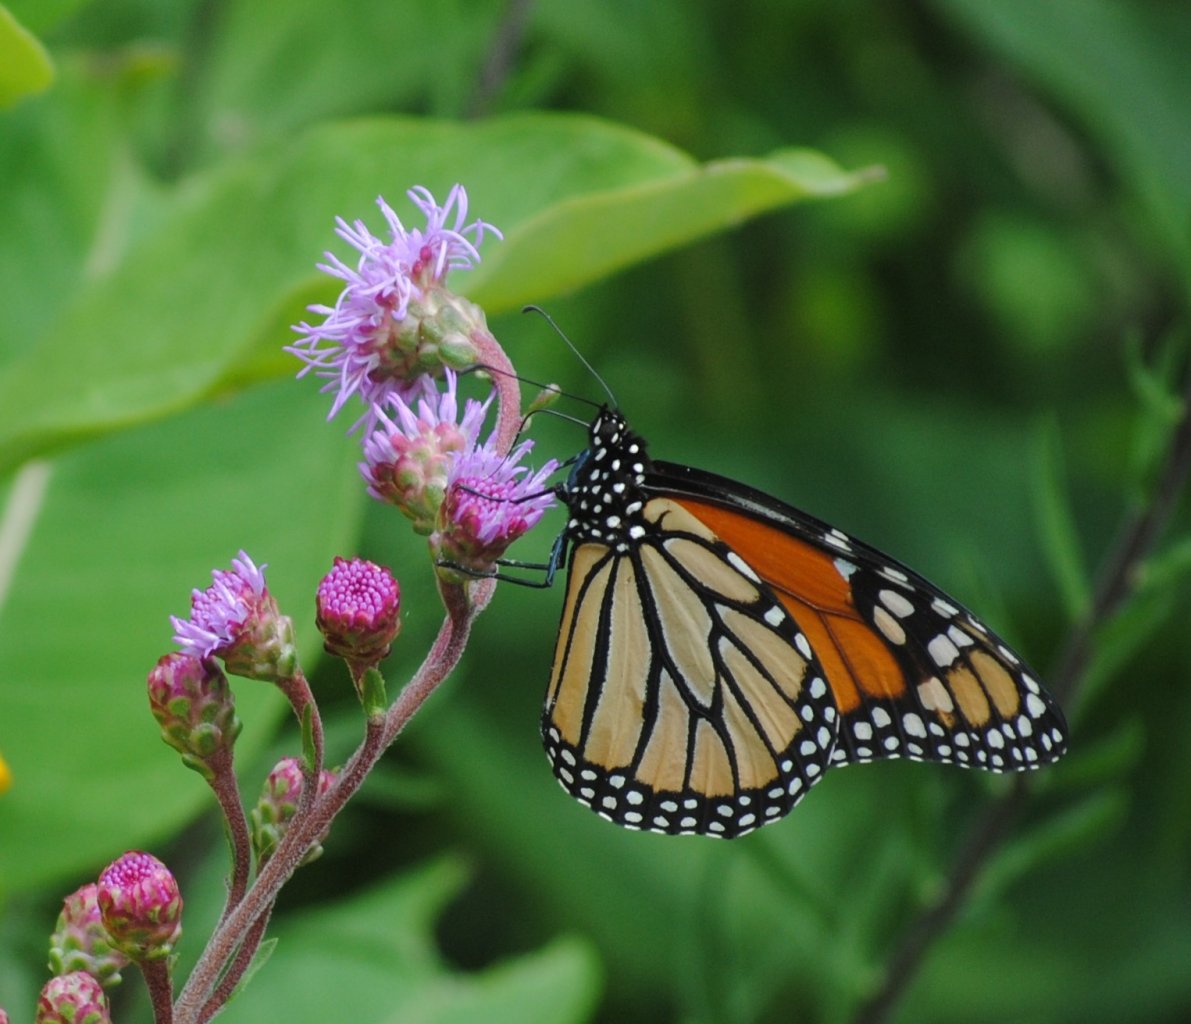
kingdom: Animalia
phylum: Arthropoda
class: Insecta
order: Lepidoptera
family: Nymphalidae
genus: Danaus
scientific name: Danaus plexippus
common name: Monarch
